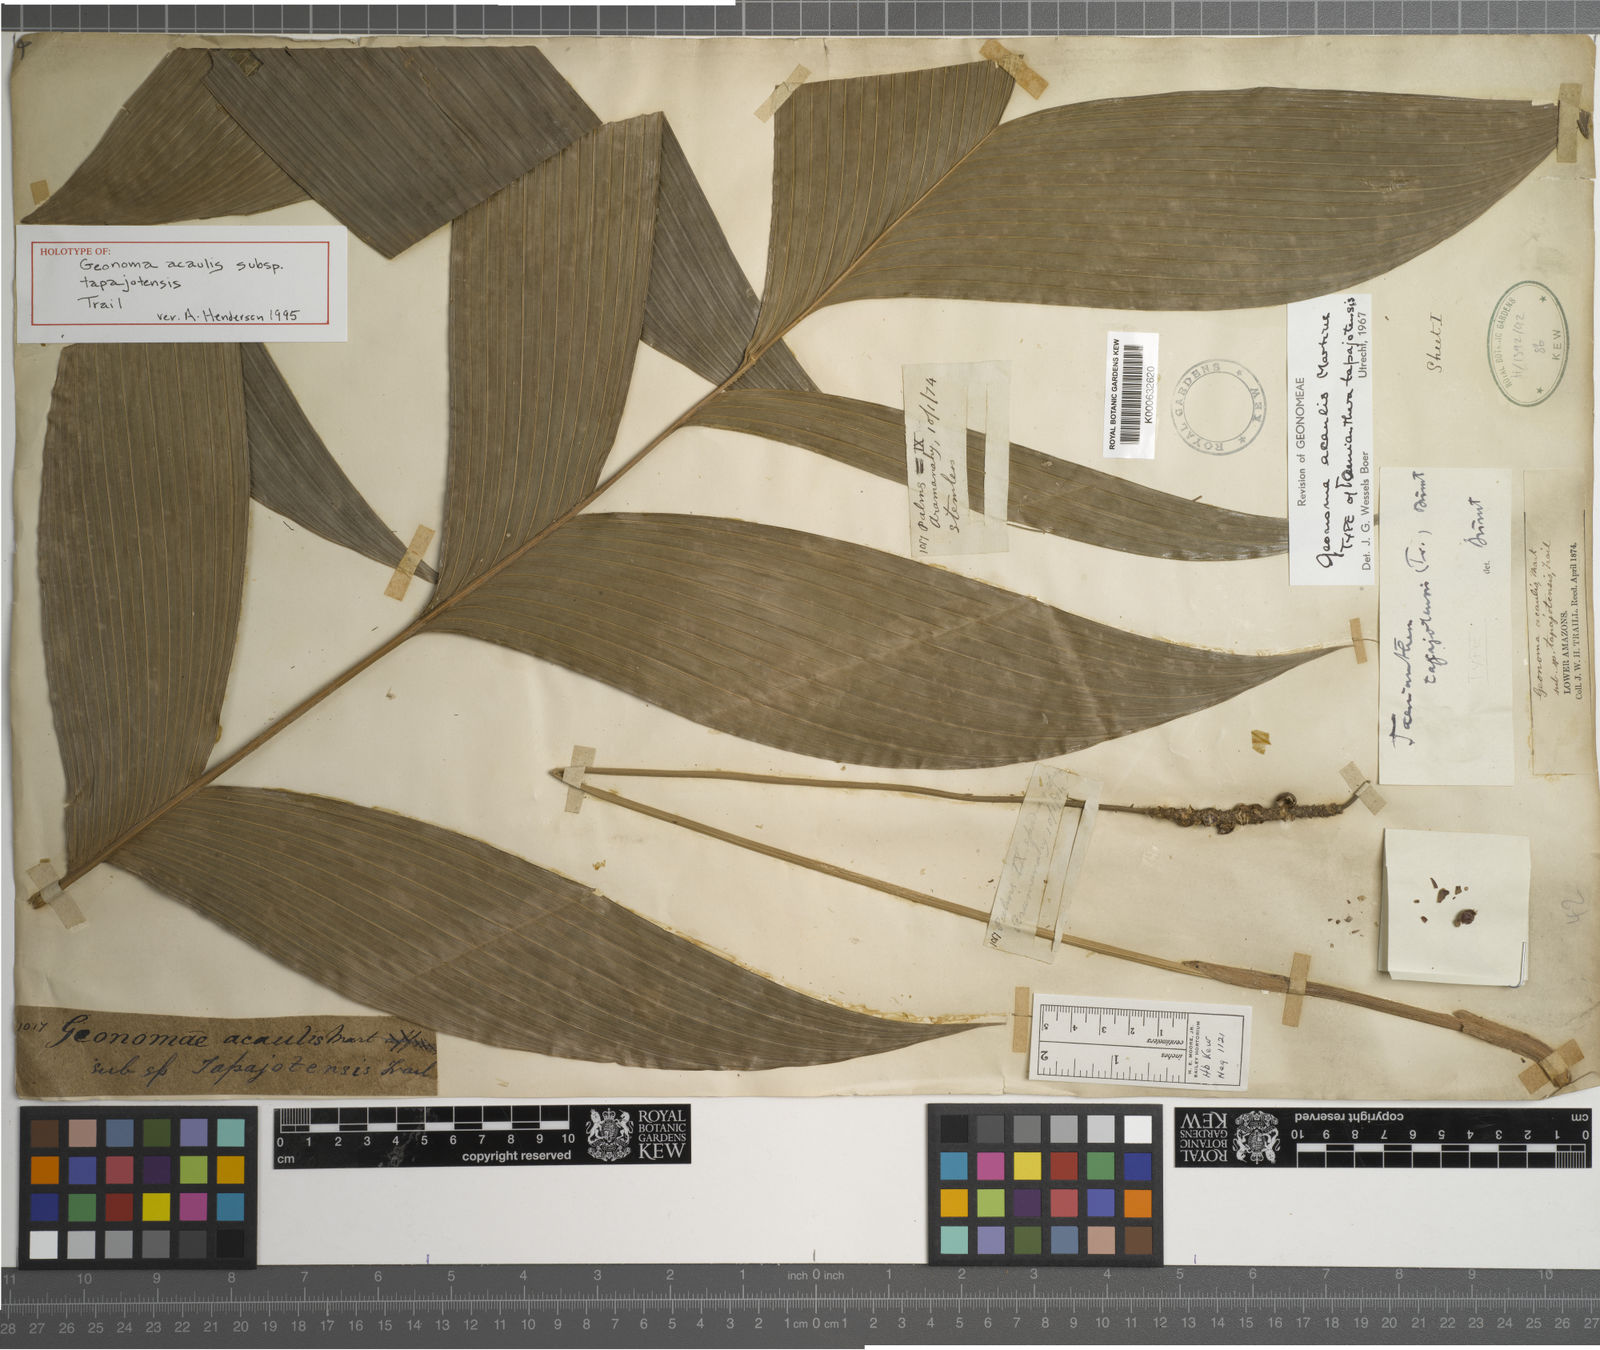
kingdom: Plantae
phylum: Tracheophyta
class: Liliopsida
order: Arecales
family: Arecaceae
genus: Geonoma
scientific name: Geonoma macrostachys
